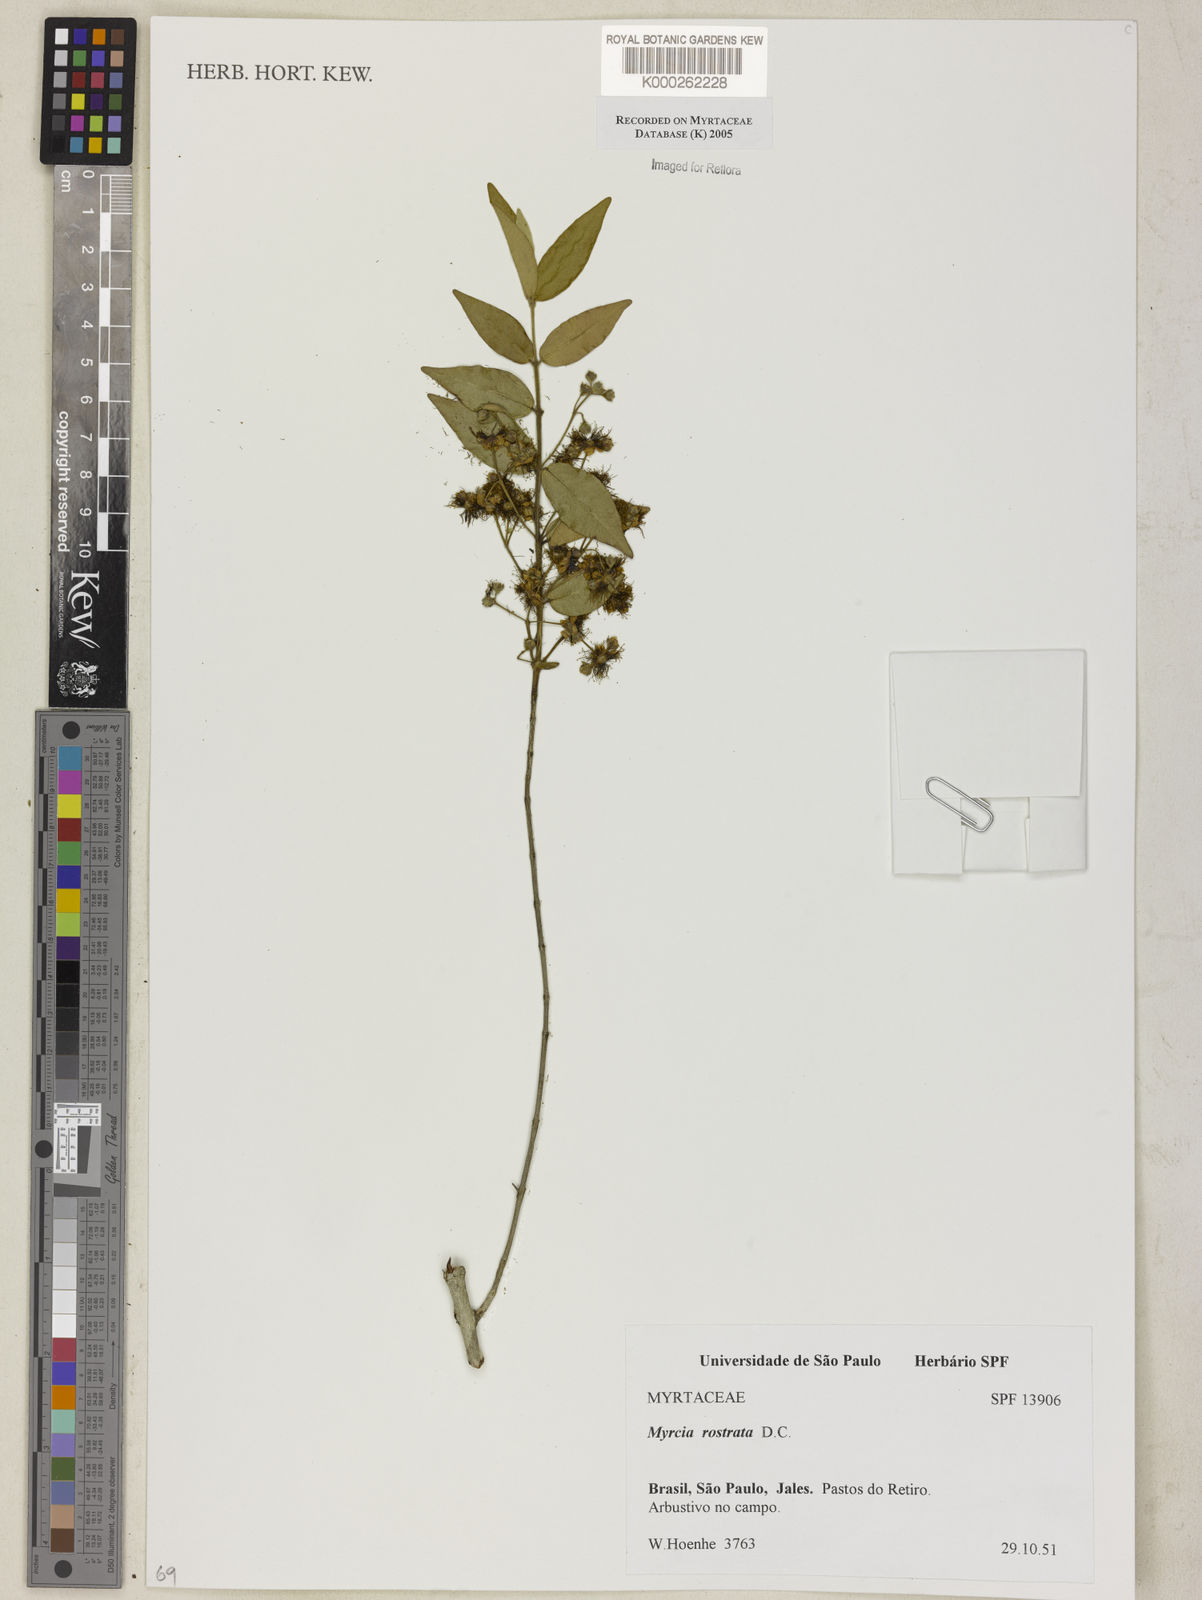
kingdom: Plantae
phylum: Tracheophyta
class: Magnoliopsida
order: Myrtales
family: Myrtaceae
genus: Myrcia
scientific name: Myrcia splendens
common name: Surinam cherry
